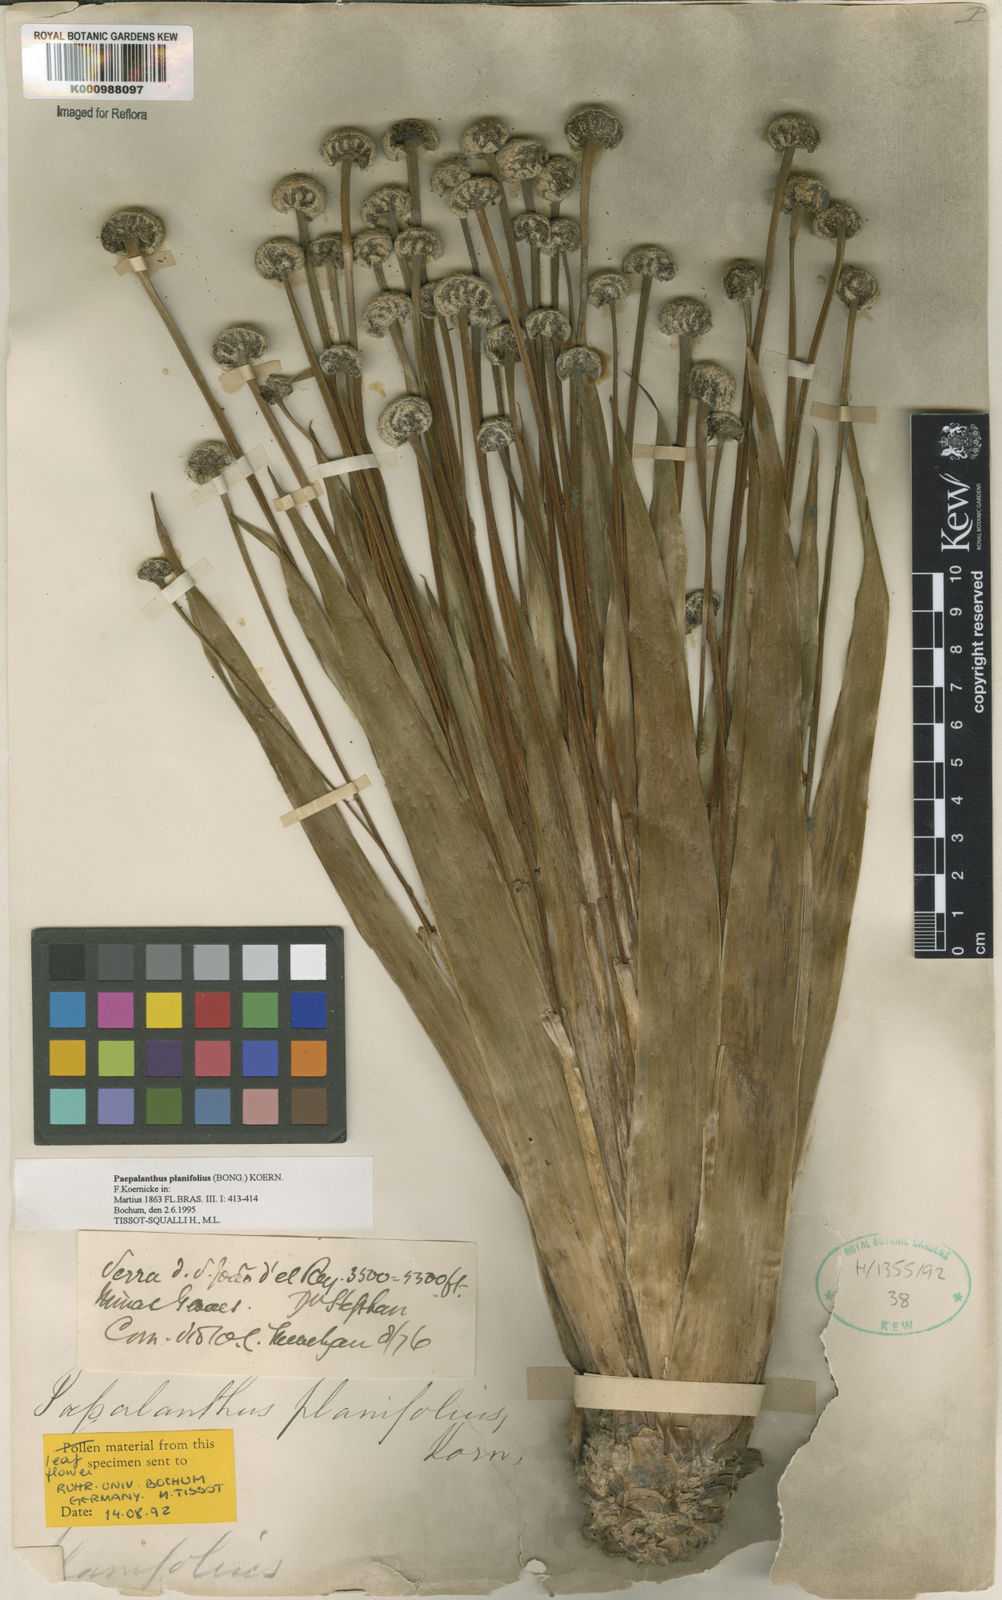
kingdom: Plantae
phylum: Tracheophyta
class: Liliopsida
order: Poales
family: Eriocaulaceae
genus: Paepalanthus
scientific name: Paepalanthus
